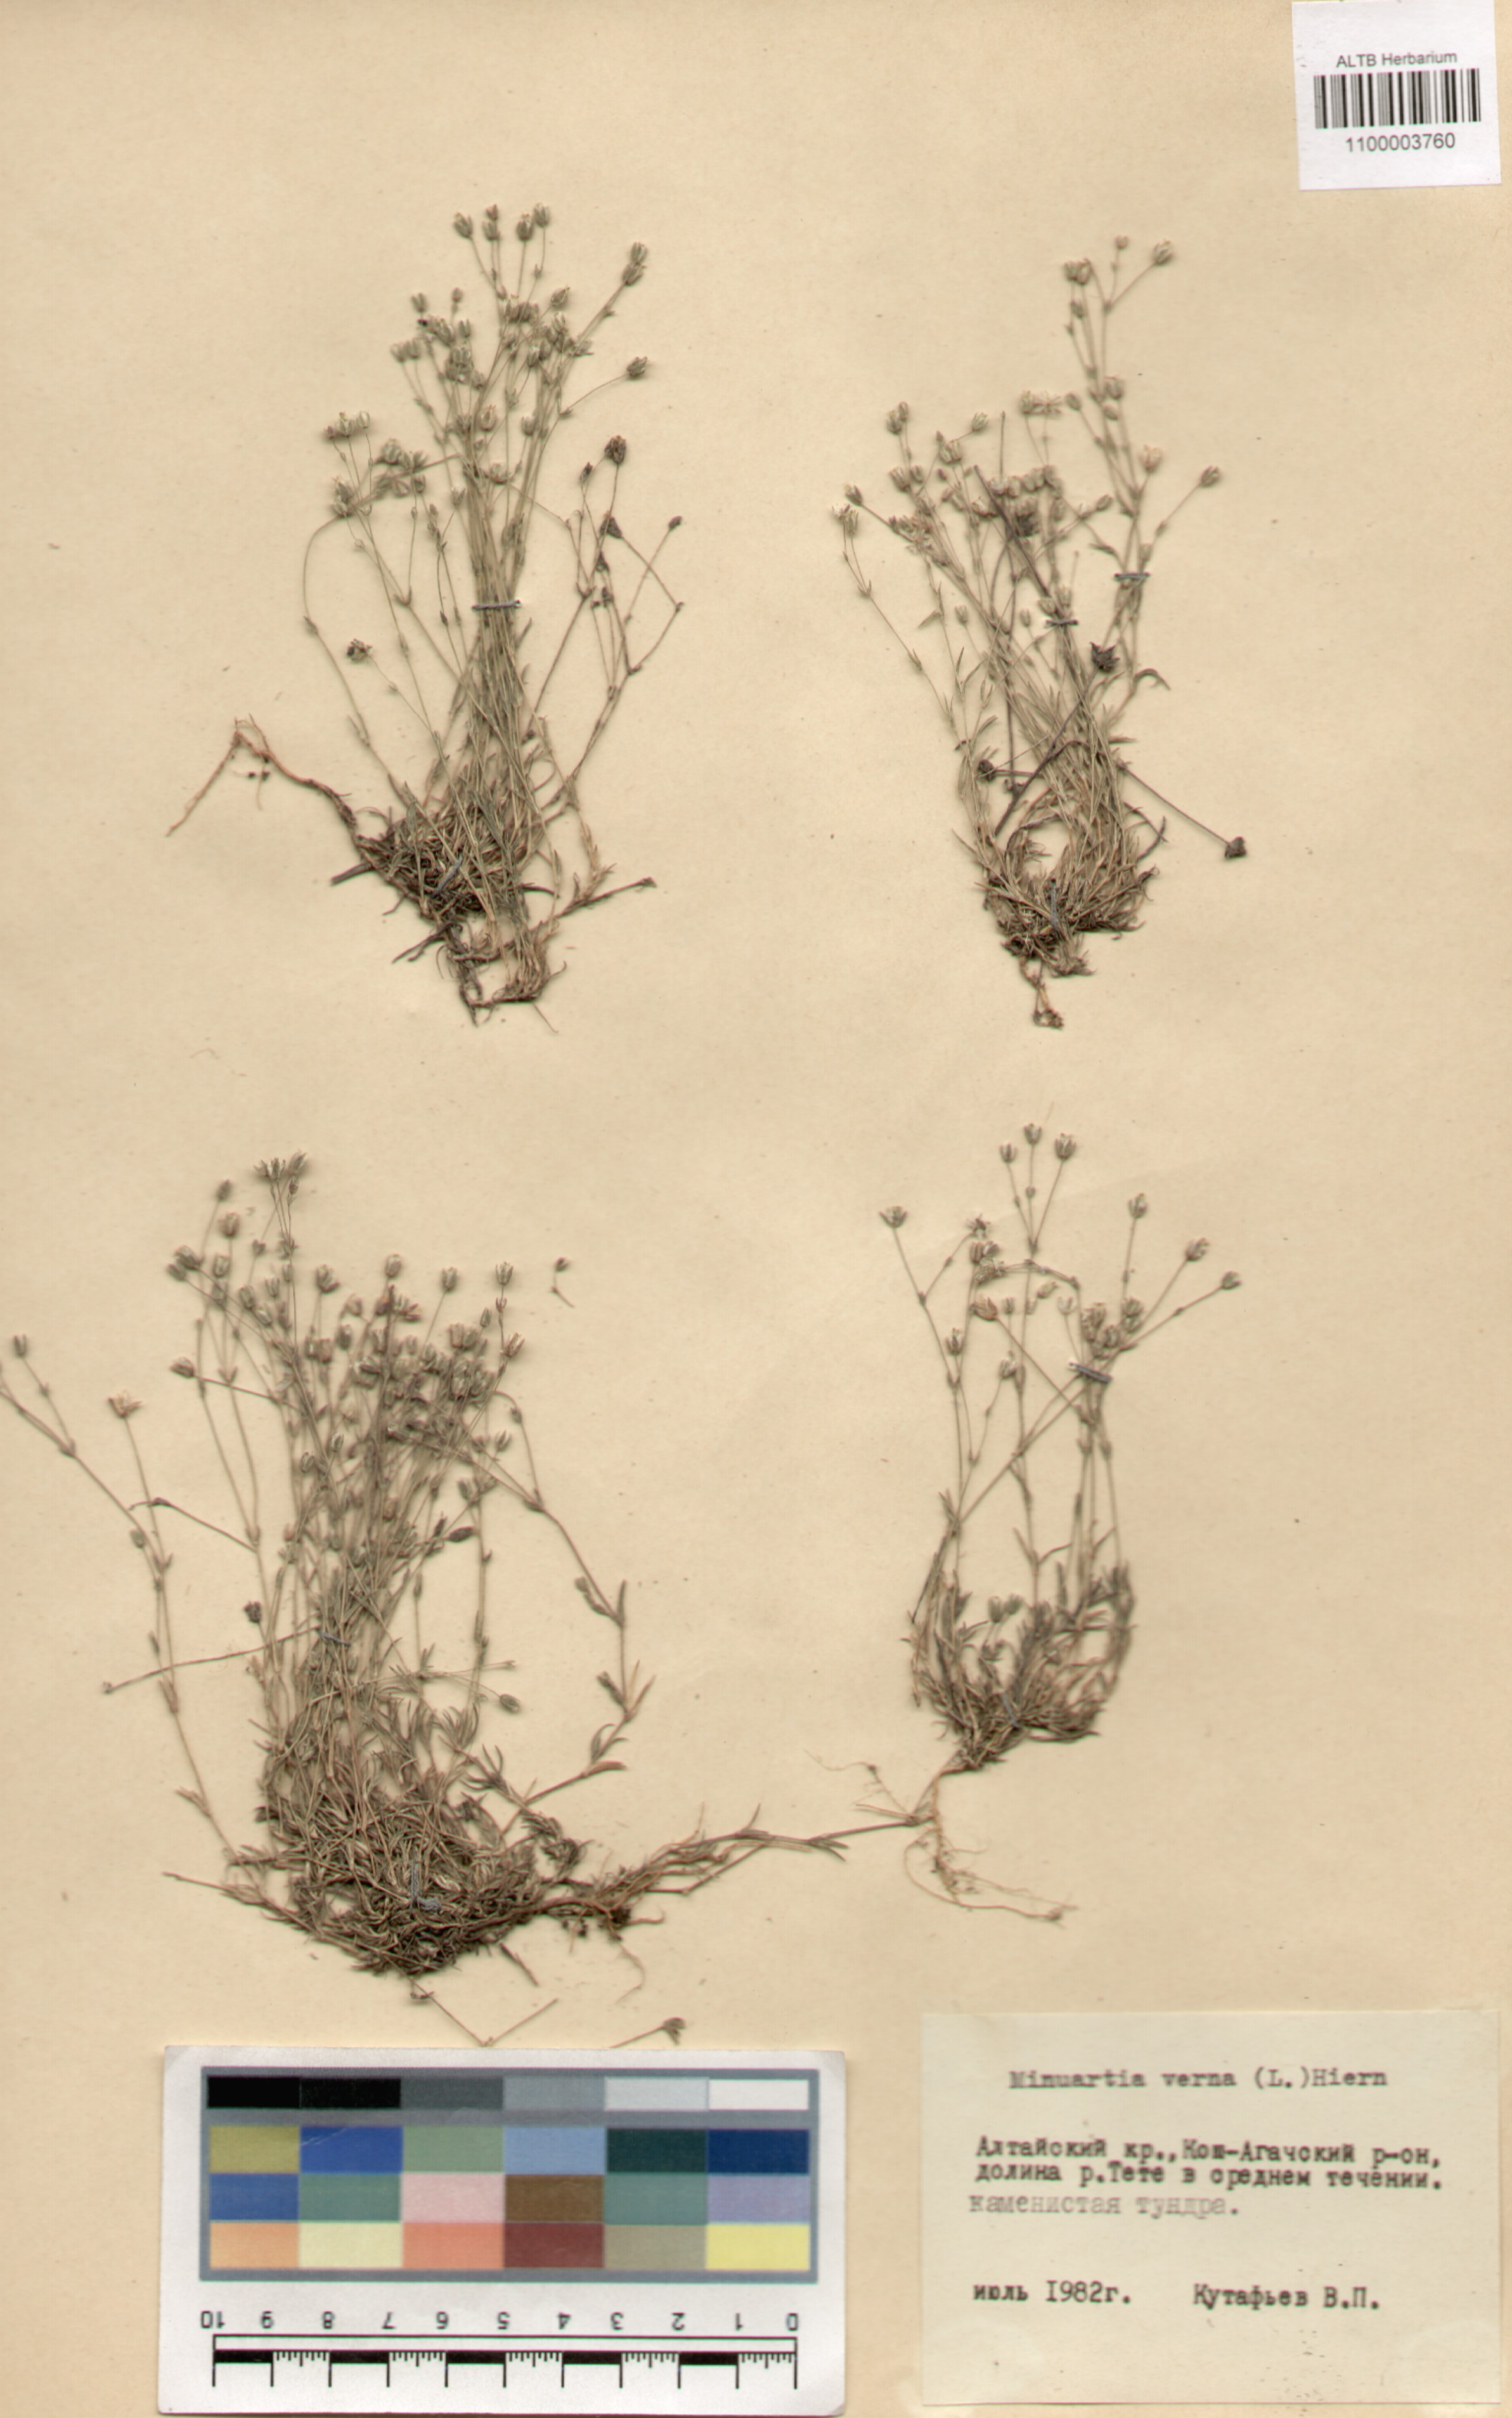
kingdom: Plantae
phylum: Tracheophyta
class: Magnoliopsida
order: Caryophyllales
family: Caryophyllaceae
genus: Sabulina
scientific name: Sabulina verna
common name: Spring sandwort
